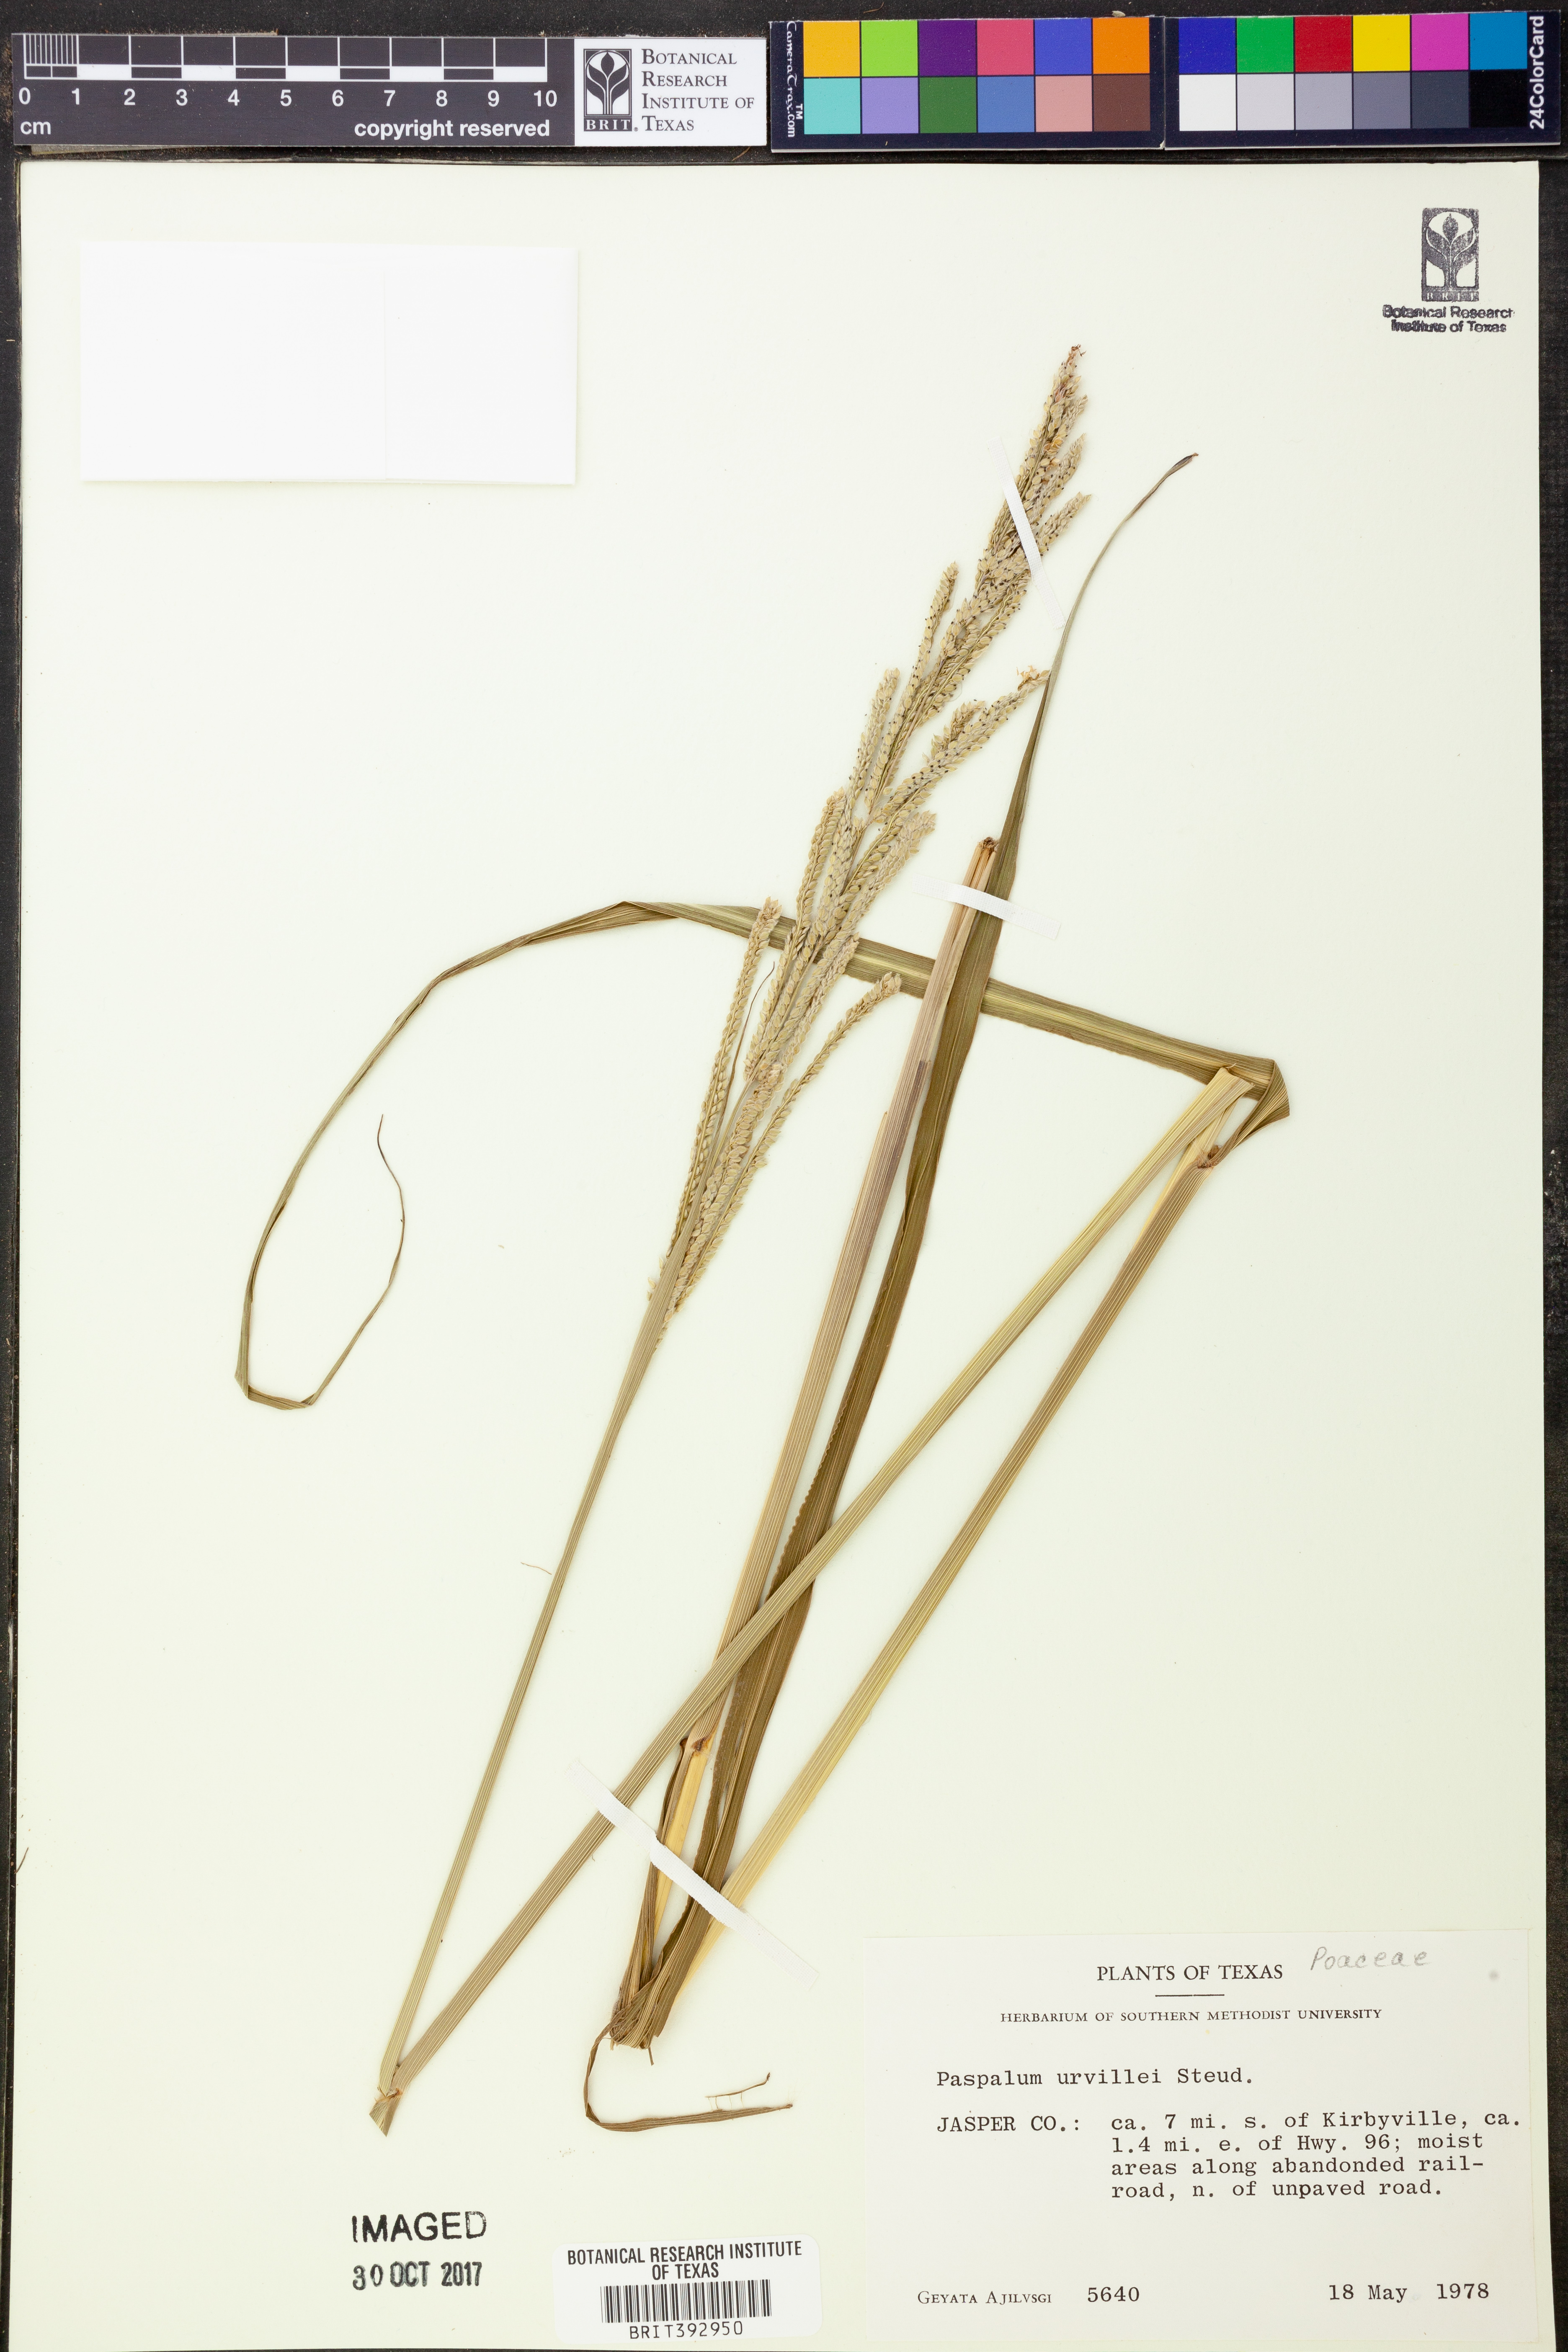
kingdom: Plantae
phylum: Tracheophyta
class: Liliopsida
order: Poales
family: Poaceae
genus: Paspalum
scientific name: Paspalum urvillei
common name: Vasey's grass
